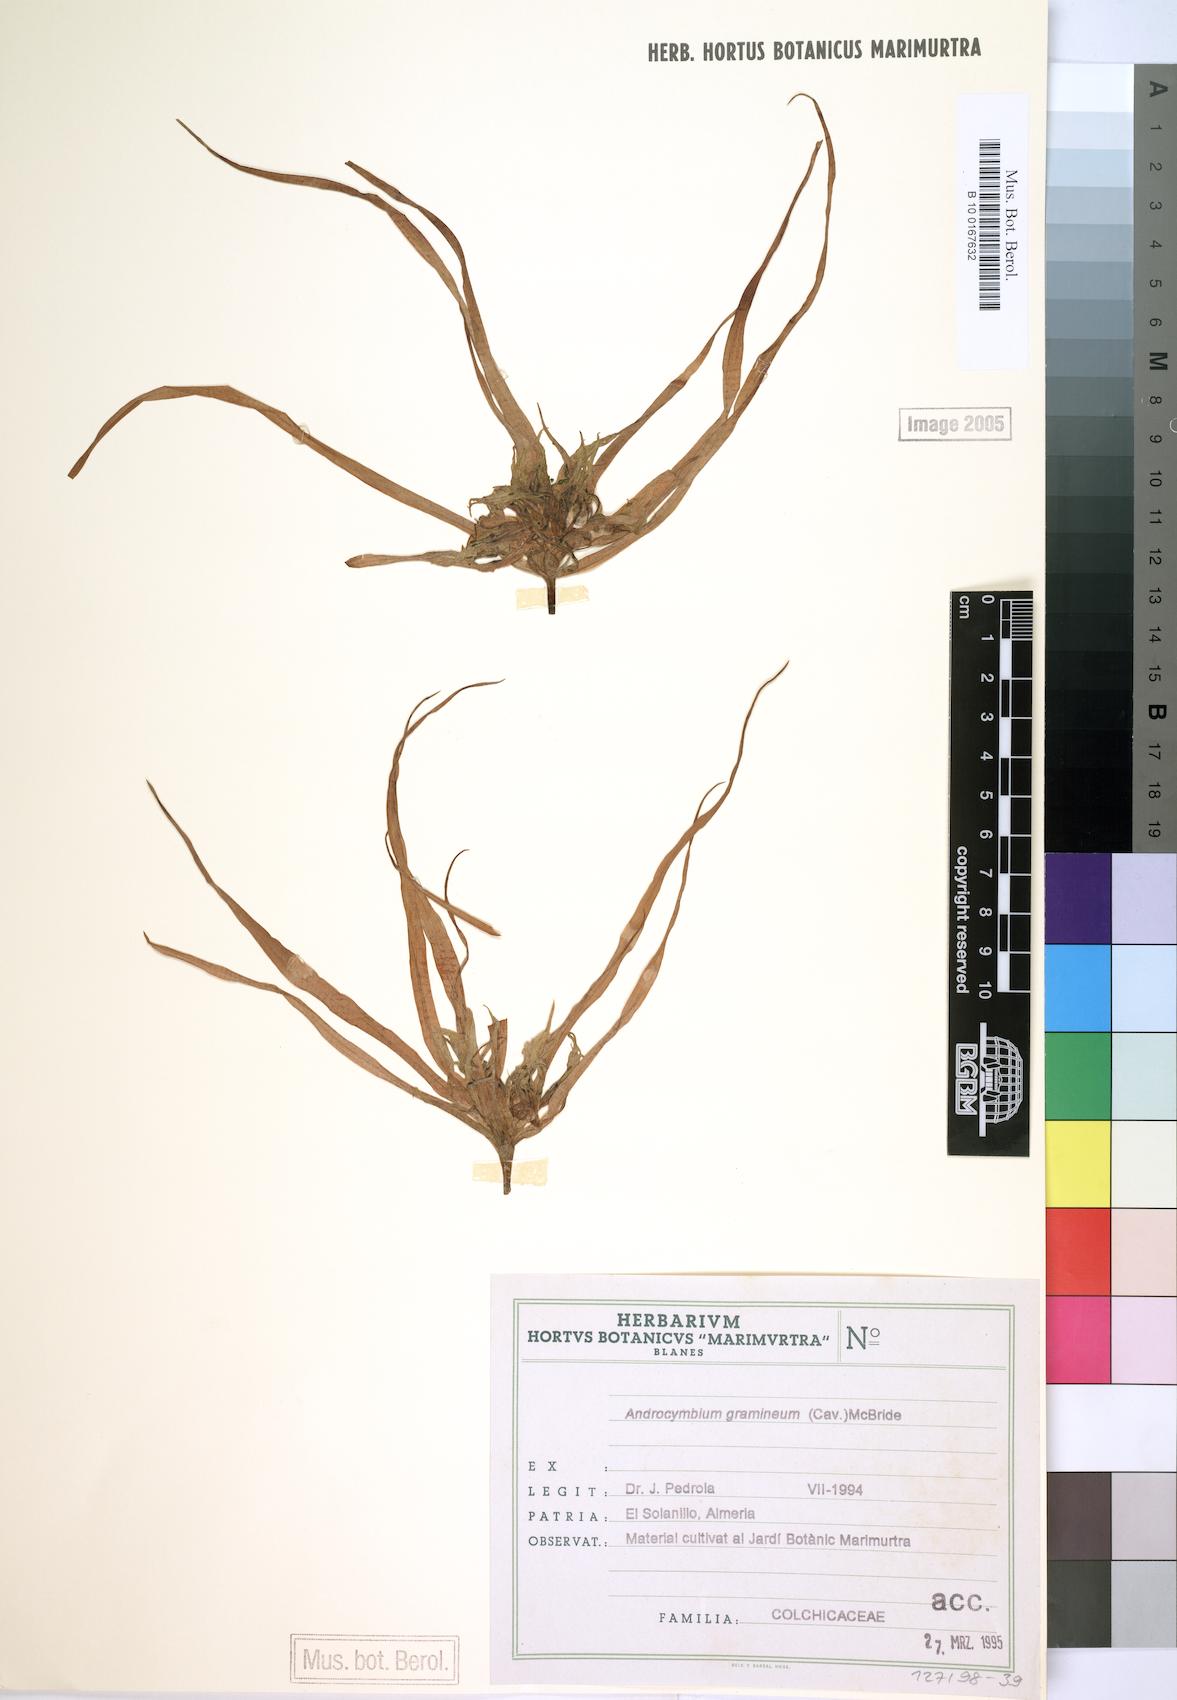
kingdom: Plantae
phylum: Tracheophyta
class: Liliopsida
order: Liliales
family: Colchicaceae
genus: Colchicum
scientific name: Colchicum gramineum
